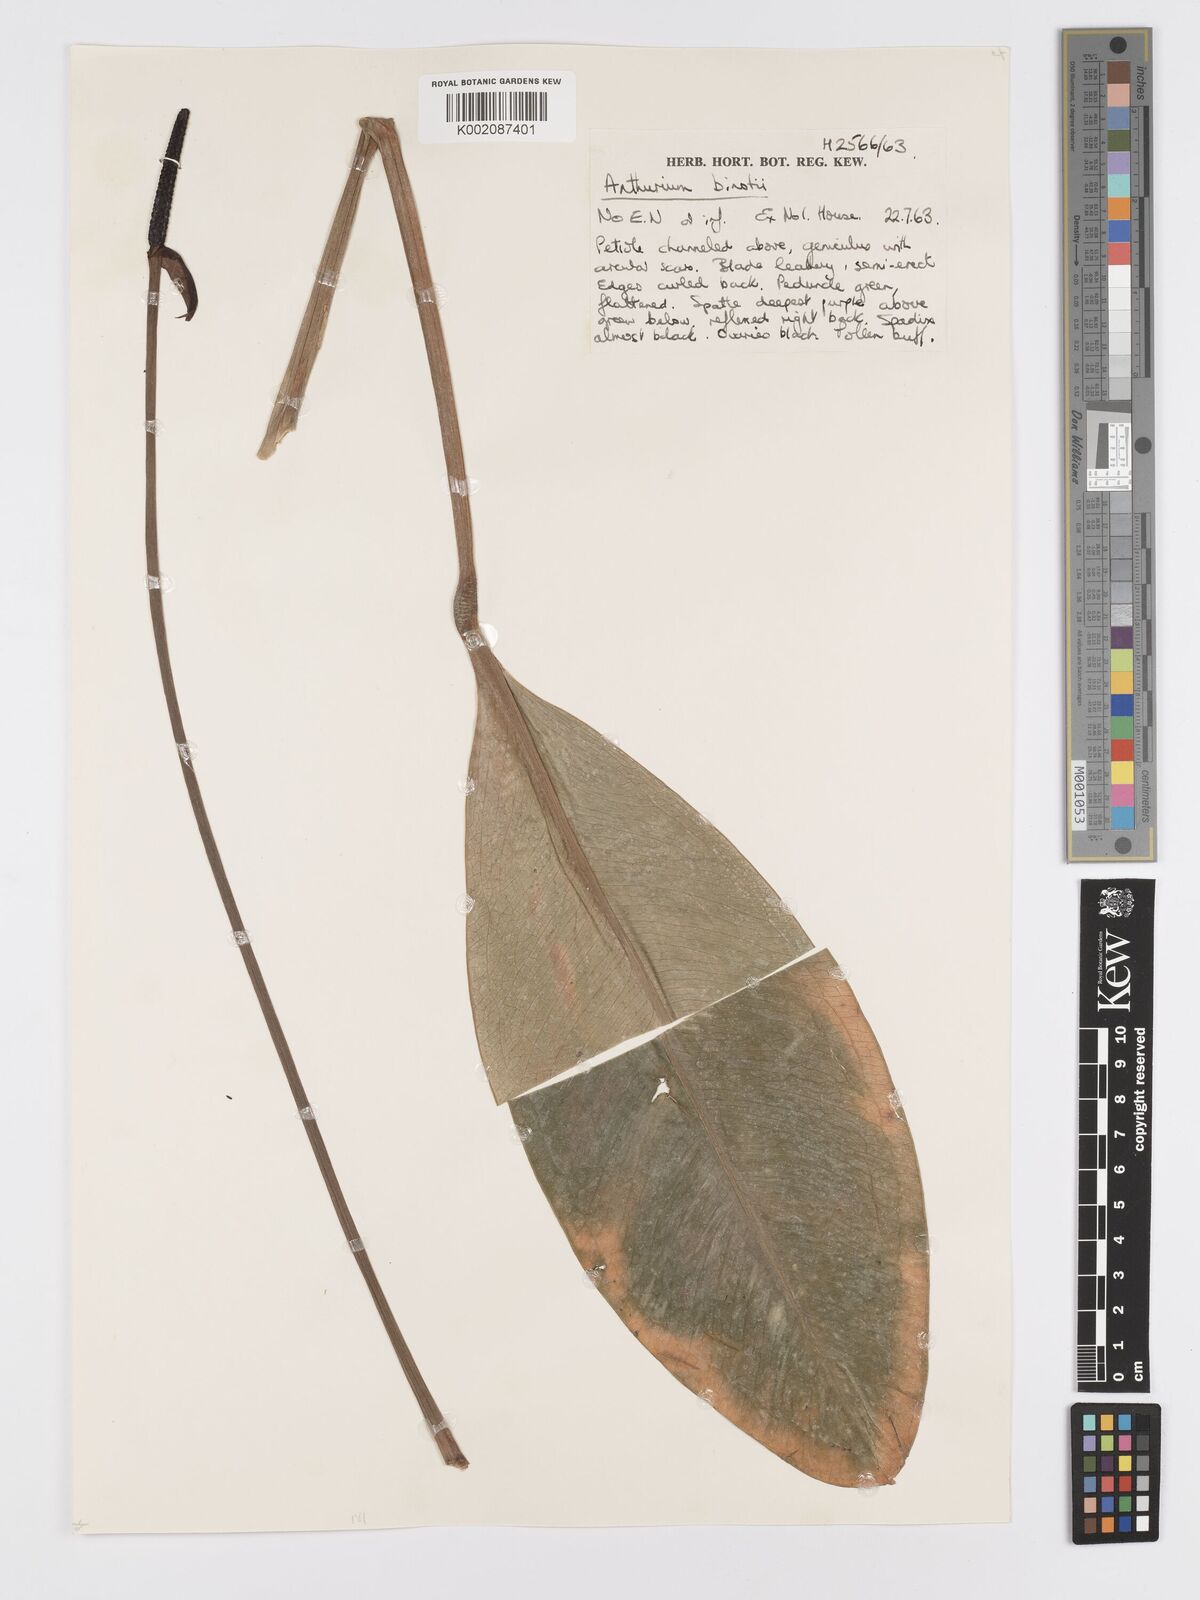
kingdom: Plantae
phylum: Tracheophyta
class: Liliopsida
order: Alismatales
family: Araceae
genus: Anthurium
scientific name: Anthurium binotii
